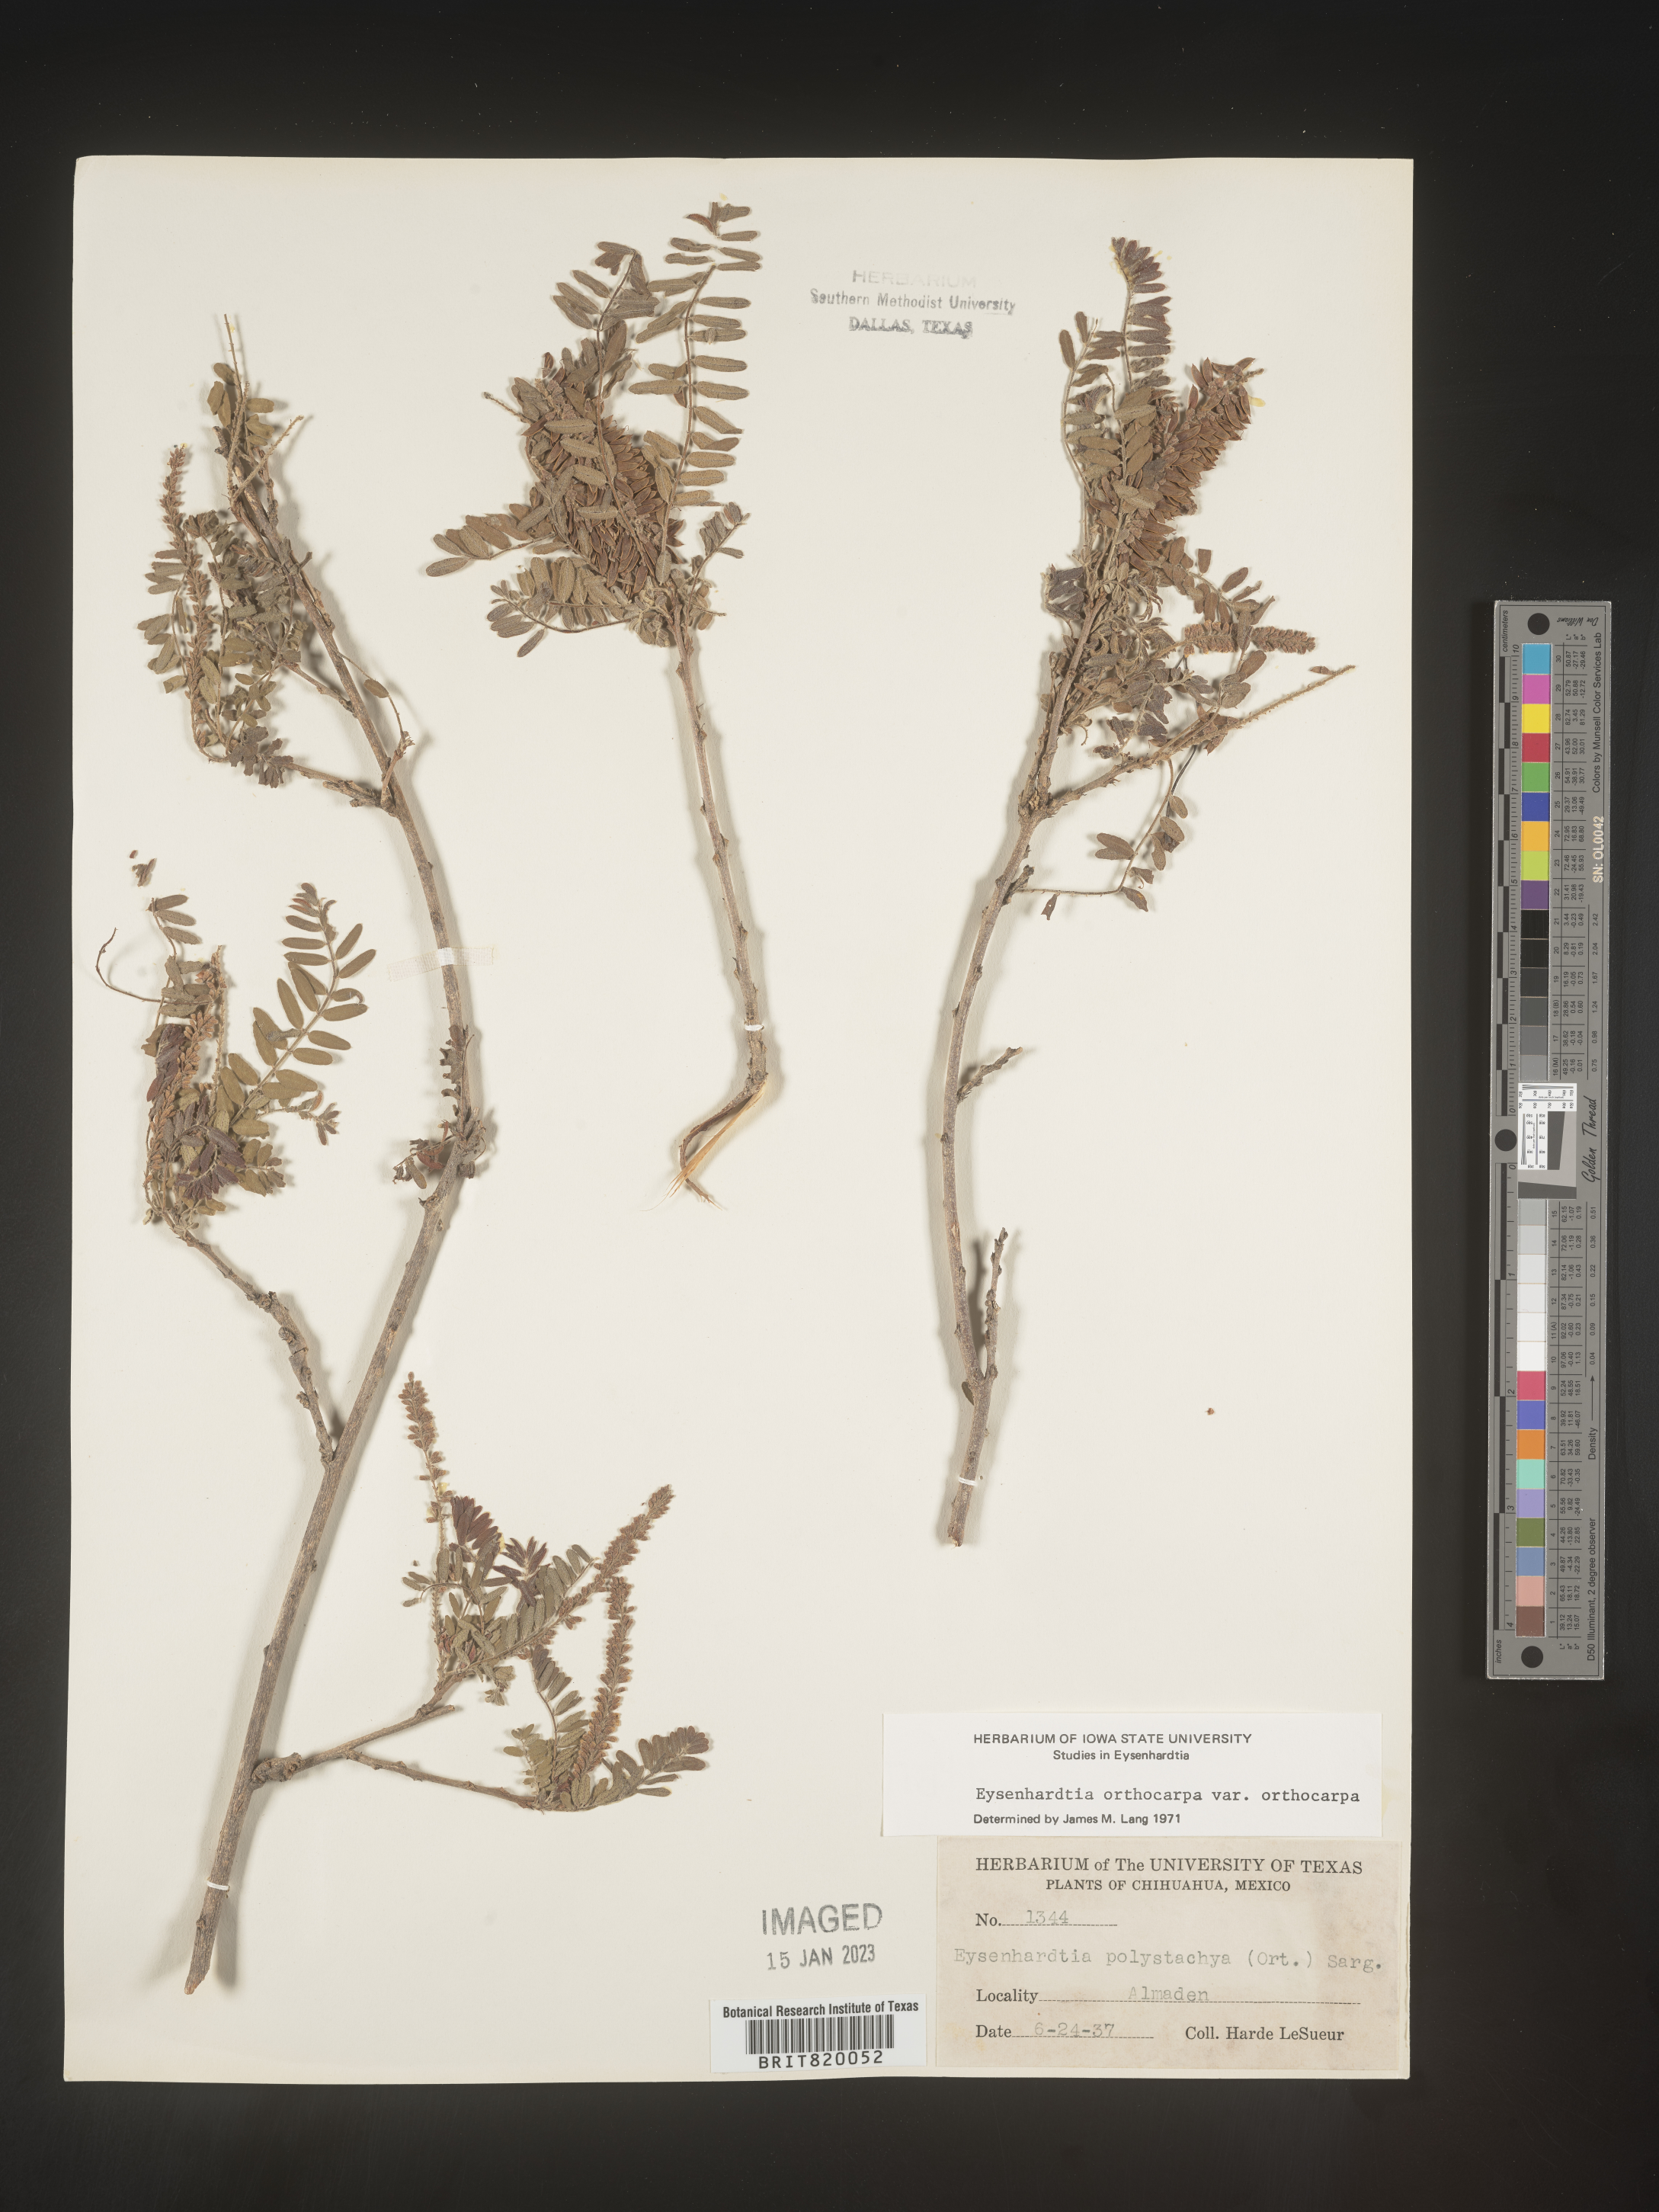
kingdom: Plantae
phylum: Tracheophyta
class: Magnoliopsida
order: Fabales
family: Fabaceae
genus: Eysenhardtia
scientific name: Eysenhardtia
